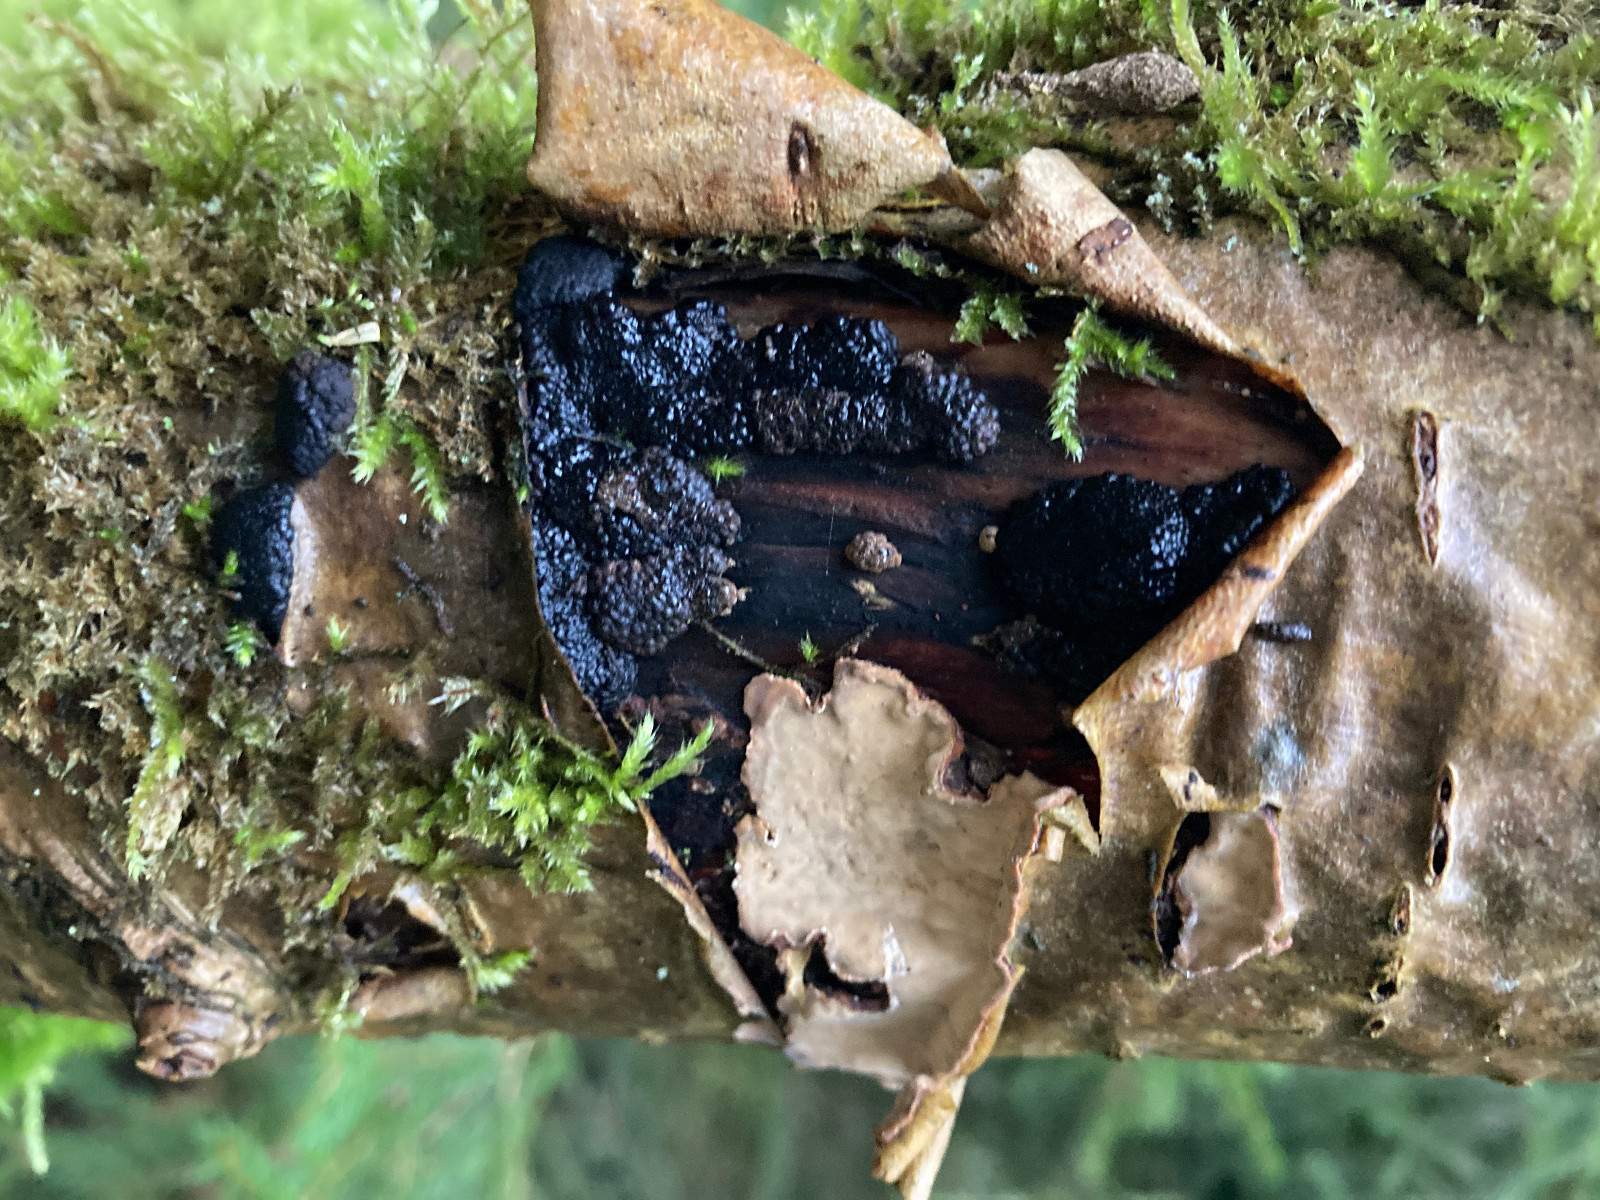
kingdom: Fungi
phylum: Ascomycota
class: Sordariomycetes
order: Xylariales
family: Hypoxylaceae
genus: Jackrogersella
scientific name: Jackrogersella multiformis
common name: foranderlig kulbær
